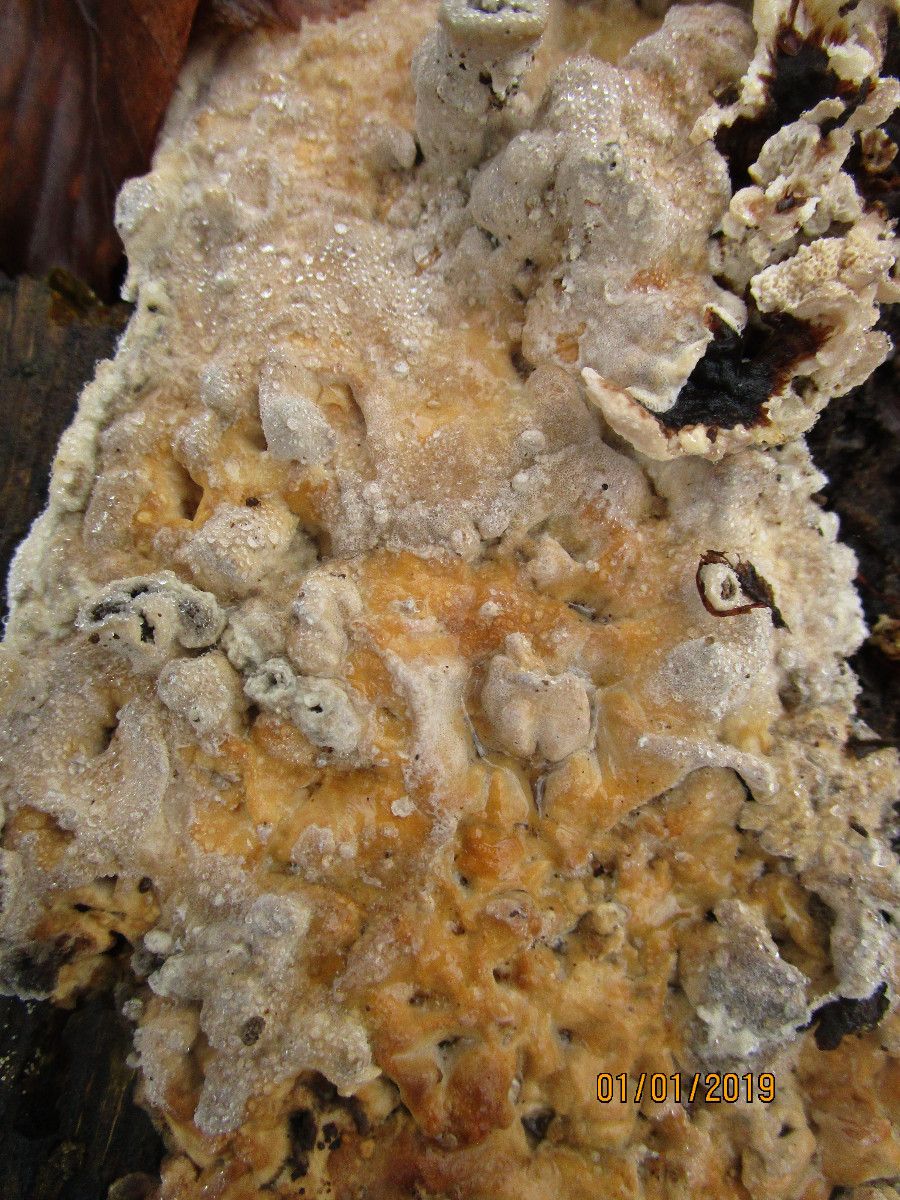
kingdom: Fungi
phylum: Basidiomycota
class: Agaricomycetes
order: Polyporales
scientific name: Polyporales
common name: poresvampordenen
